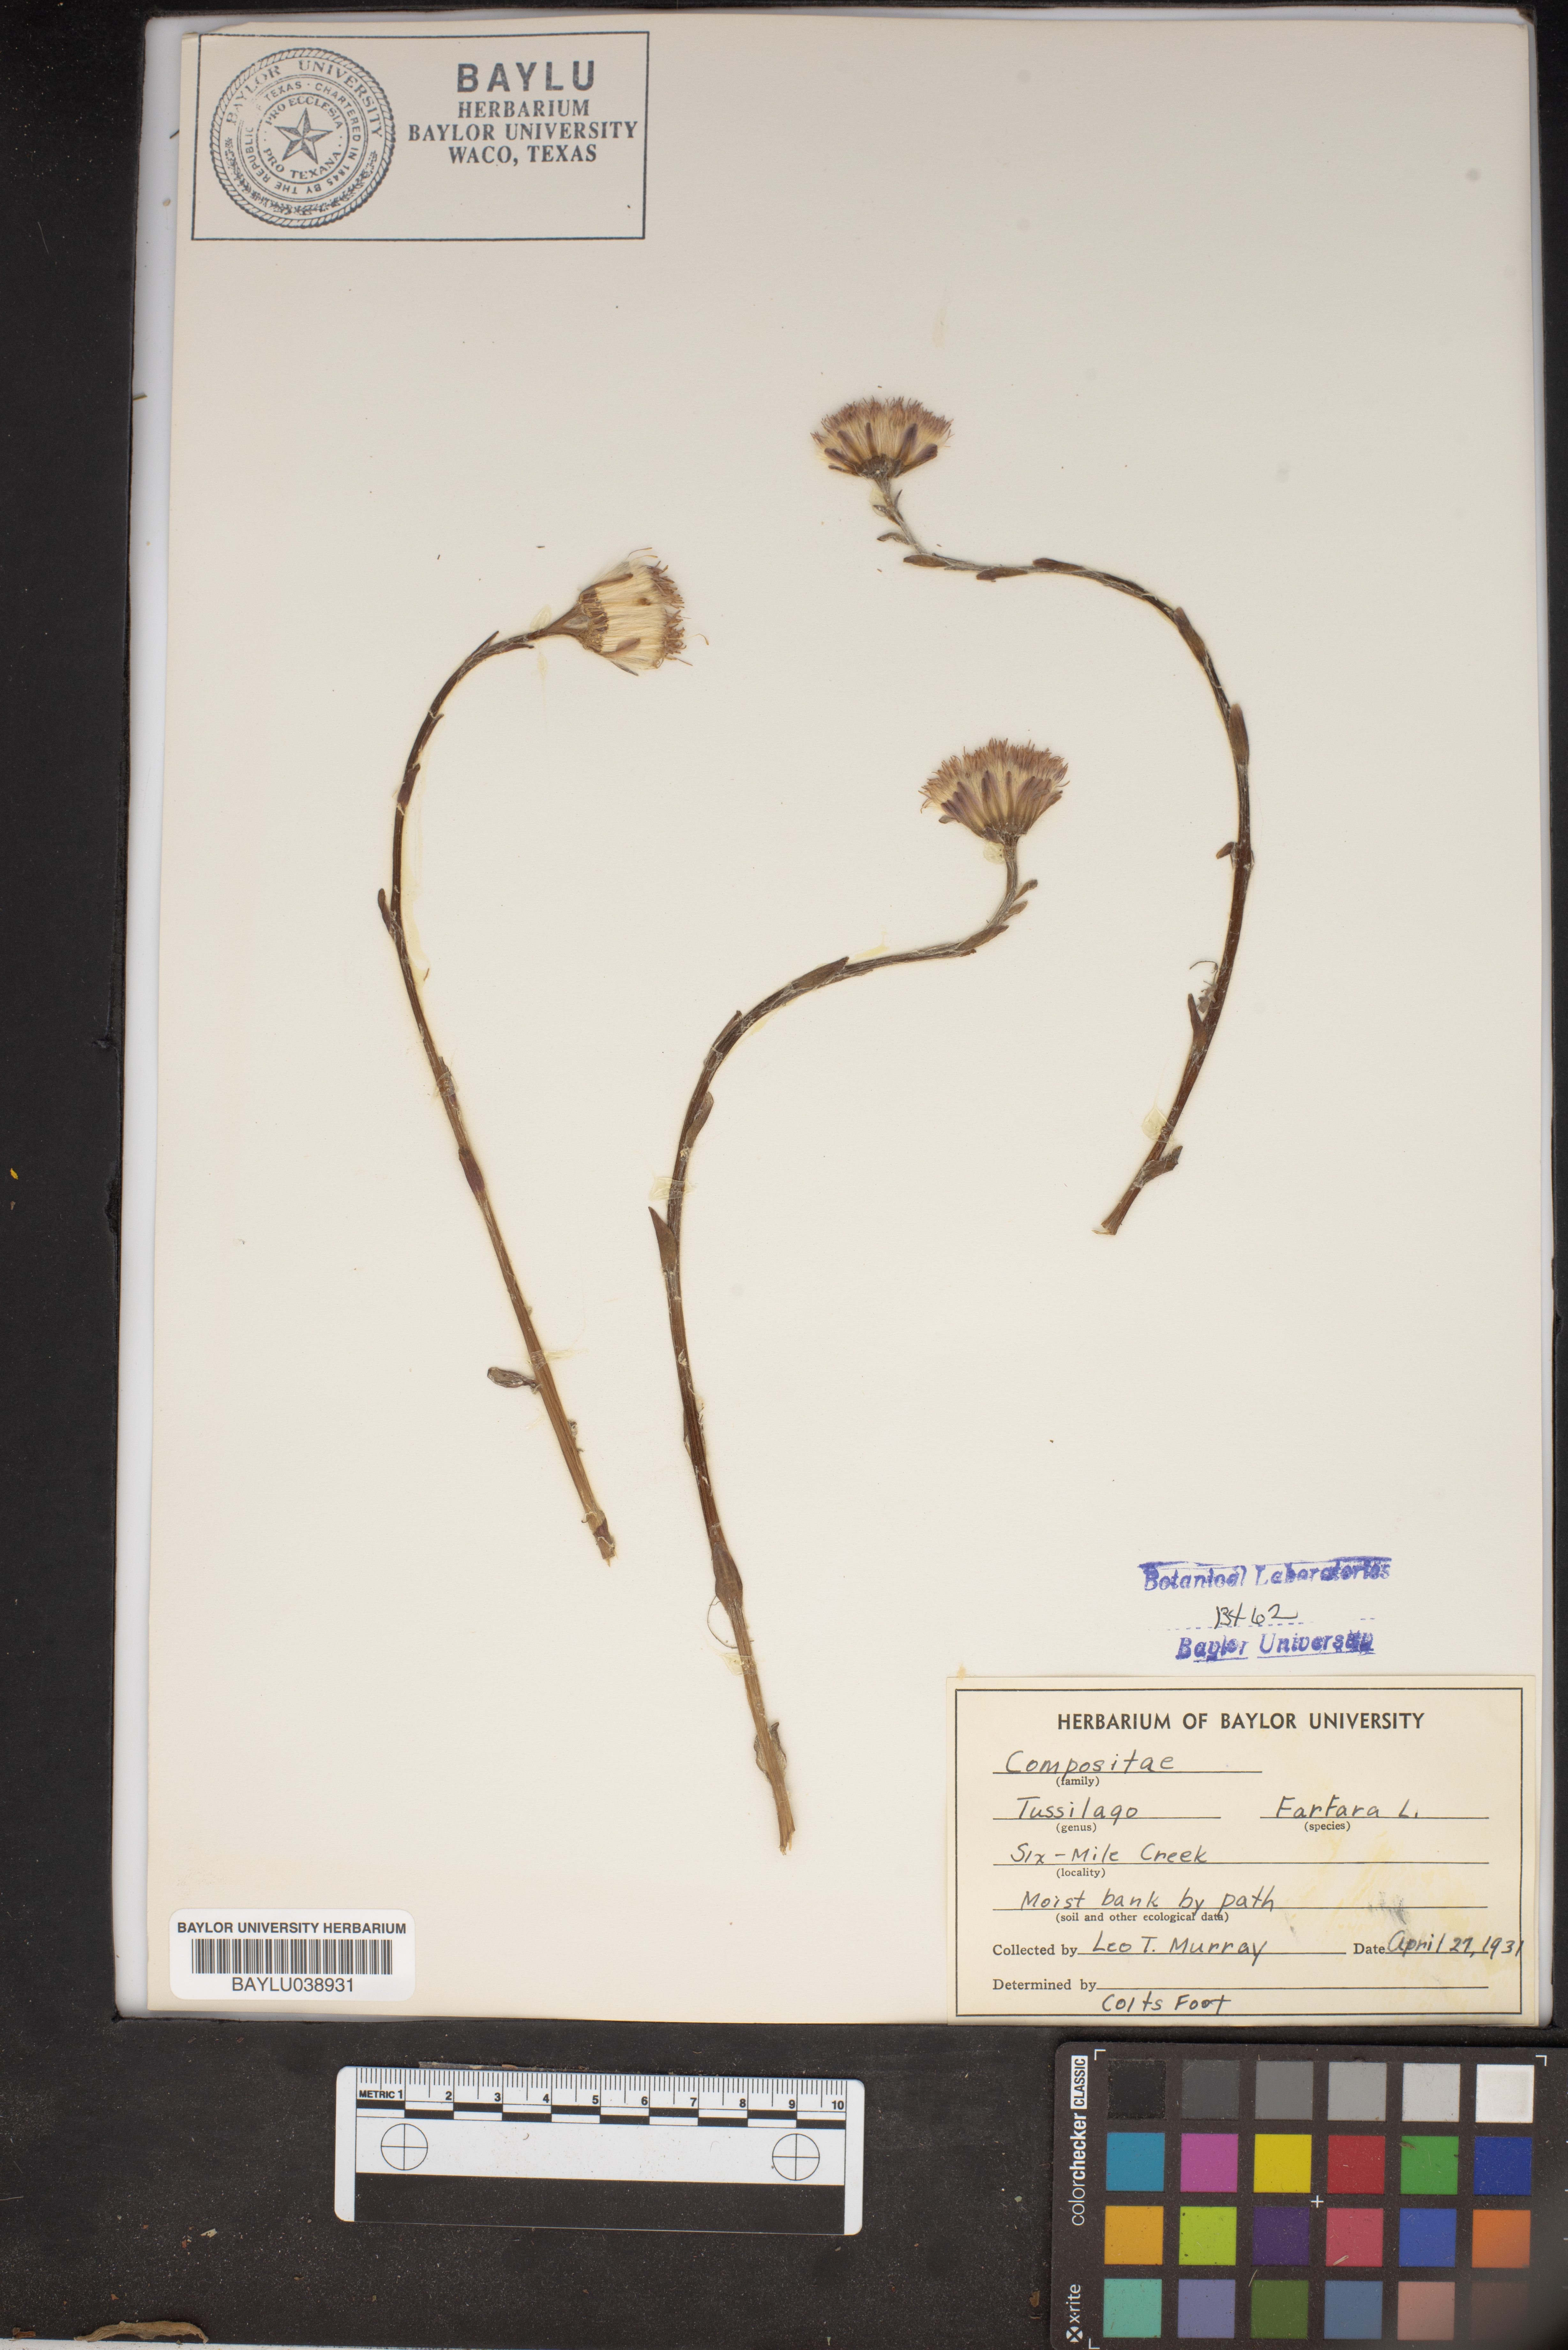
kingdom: Plantae
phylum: Tracheophyta
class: Magnoliopsida
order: Asterales
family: Asteraceae
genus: Tussilago
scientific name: Tussilago farfara
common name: Coltsfoot
